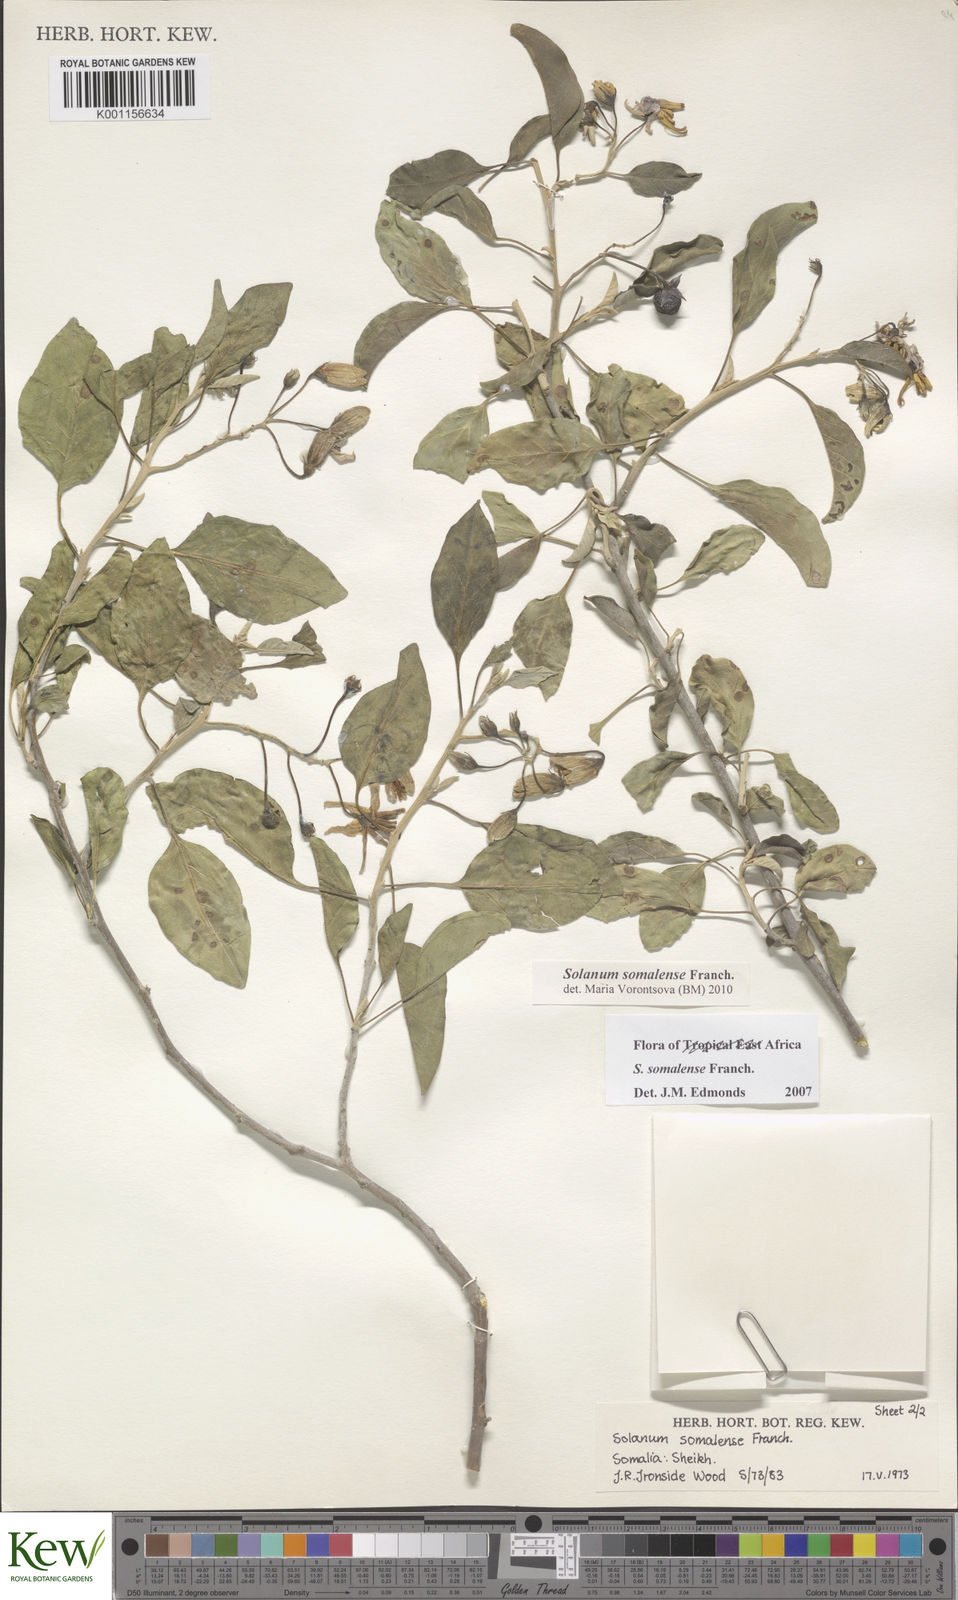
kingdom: Plantae
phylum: Tracheophyta
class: Magnoliopsida
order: Solanales
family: Solanaceae
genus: Solanum
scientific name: Solanum somalense
